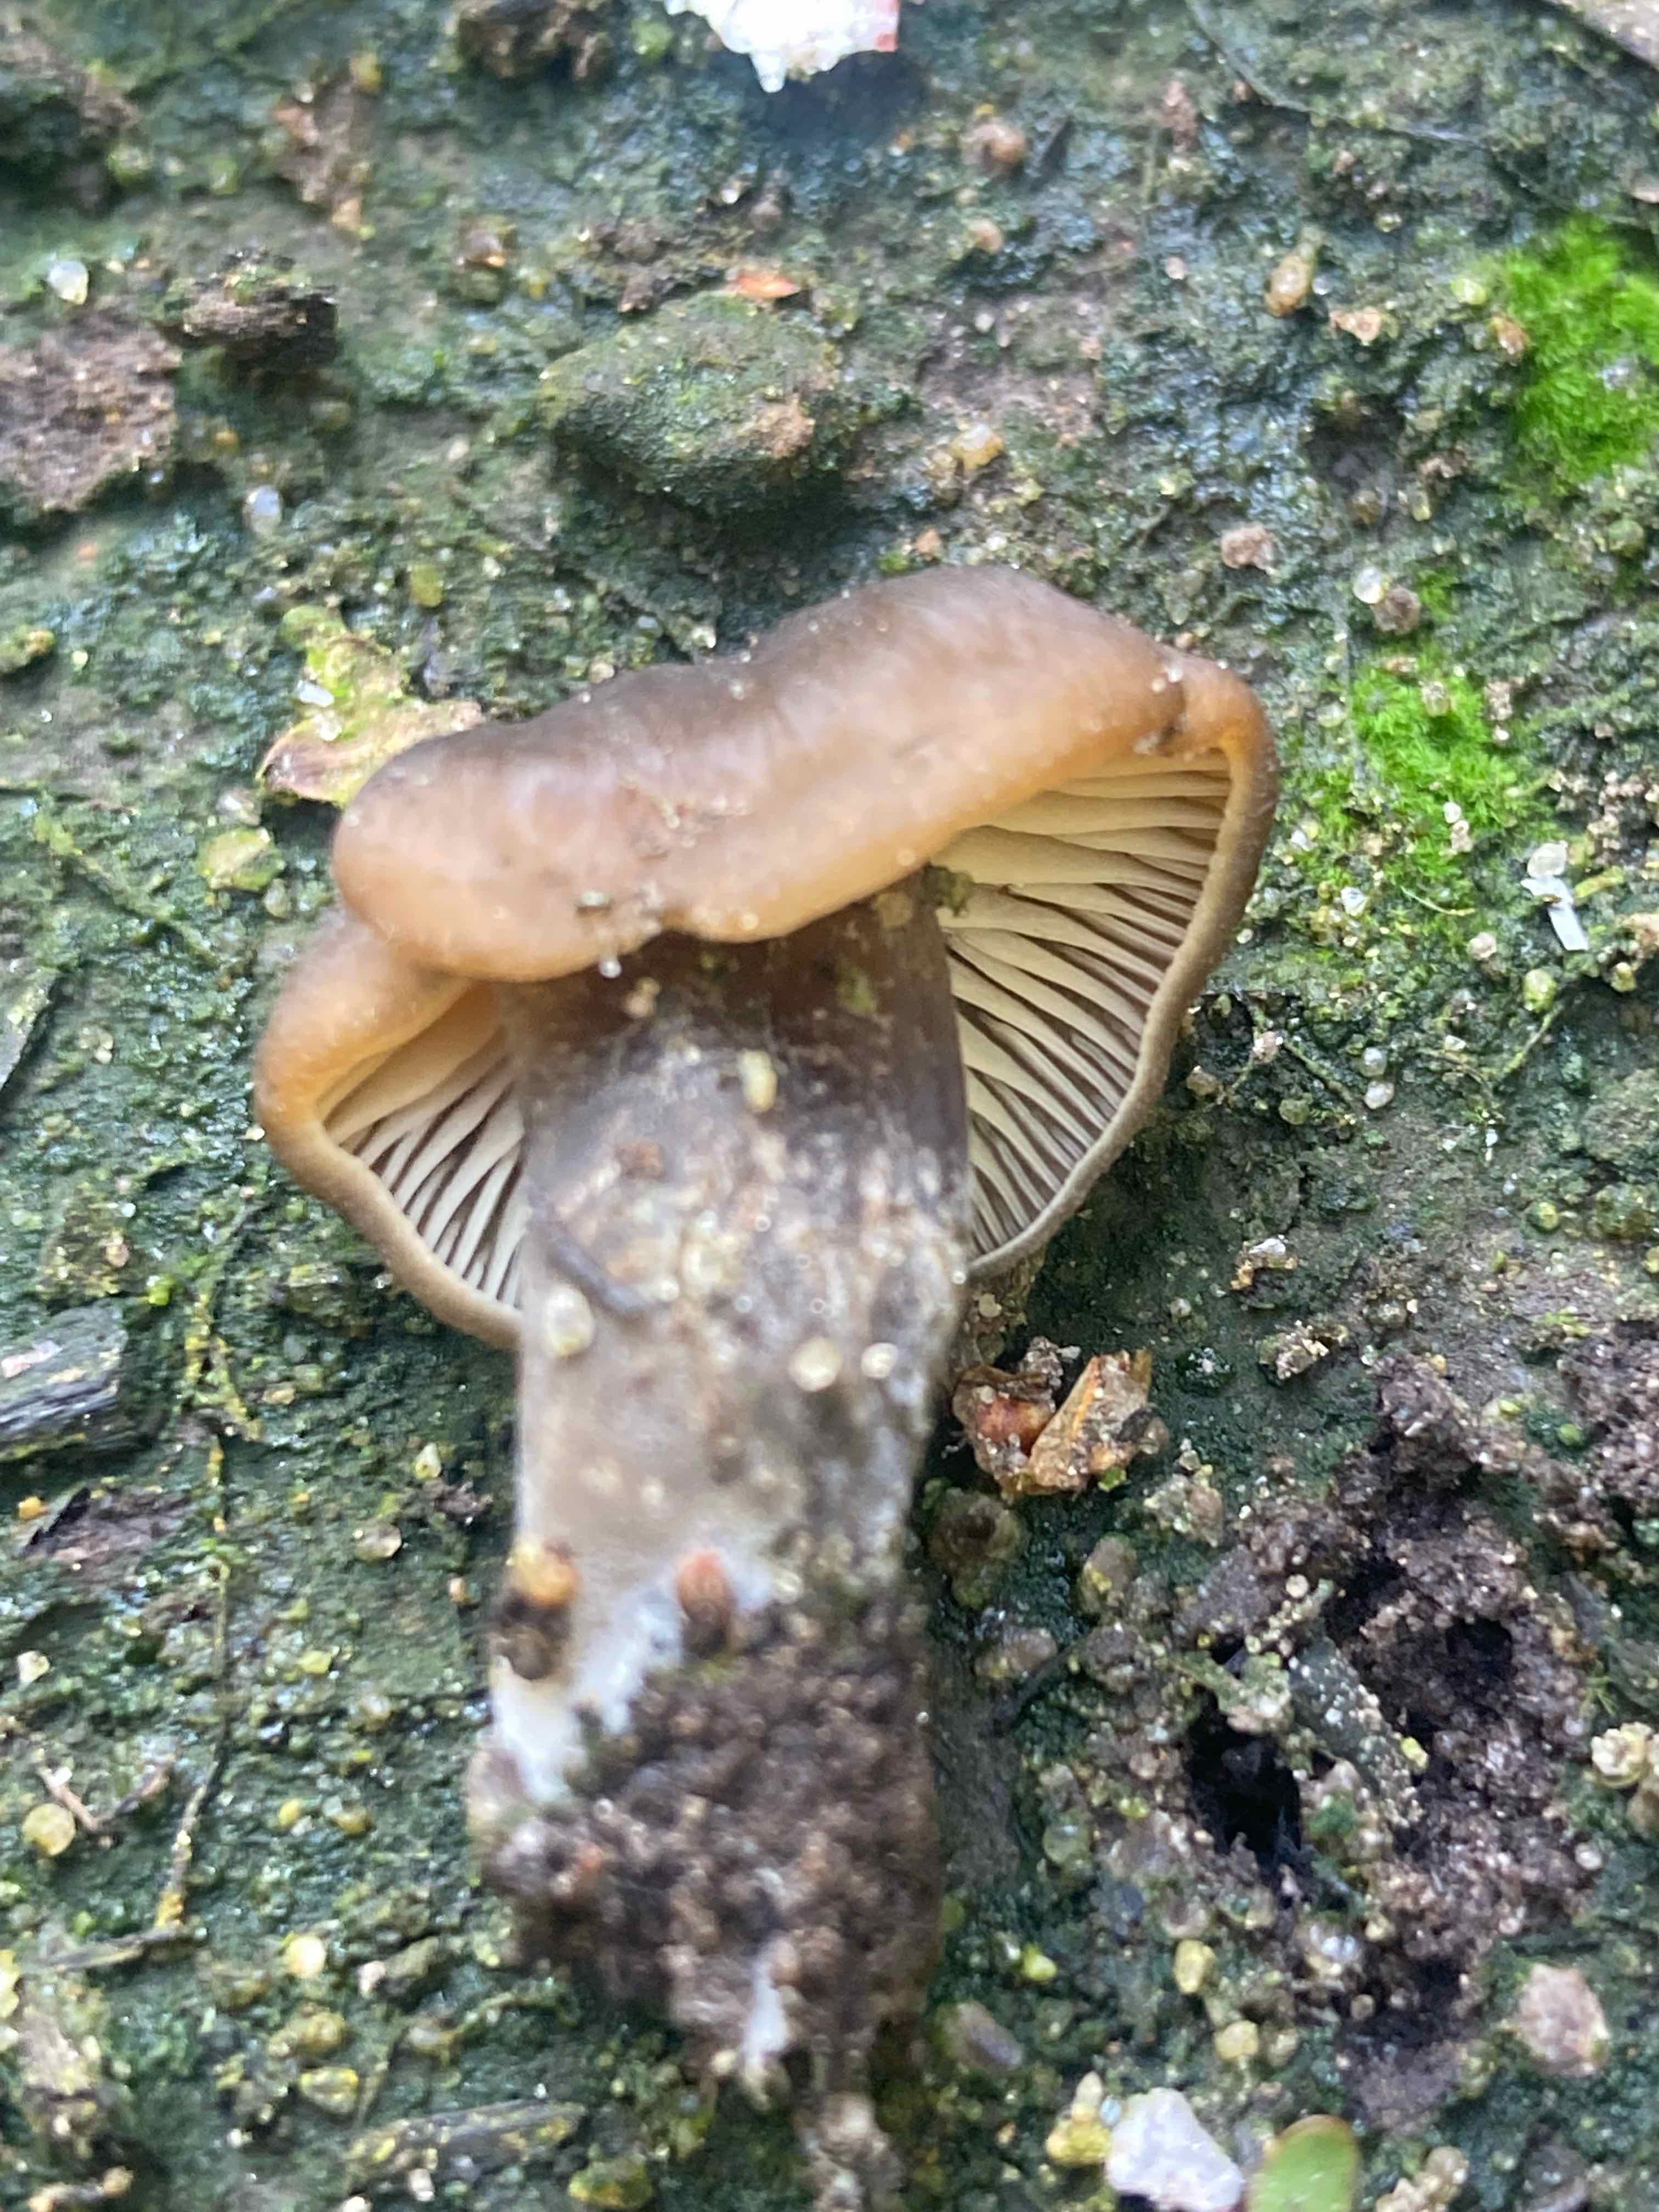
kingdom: Fungi
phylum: Basidiomycota
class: Agaricomycetes
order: Agaricales
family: Lyophyllaceae
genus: Tephrocybe
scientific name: Tephrocybe
